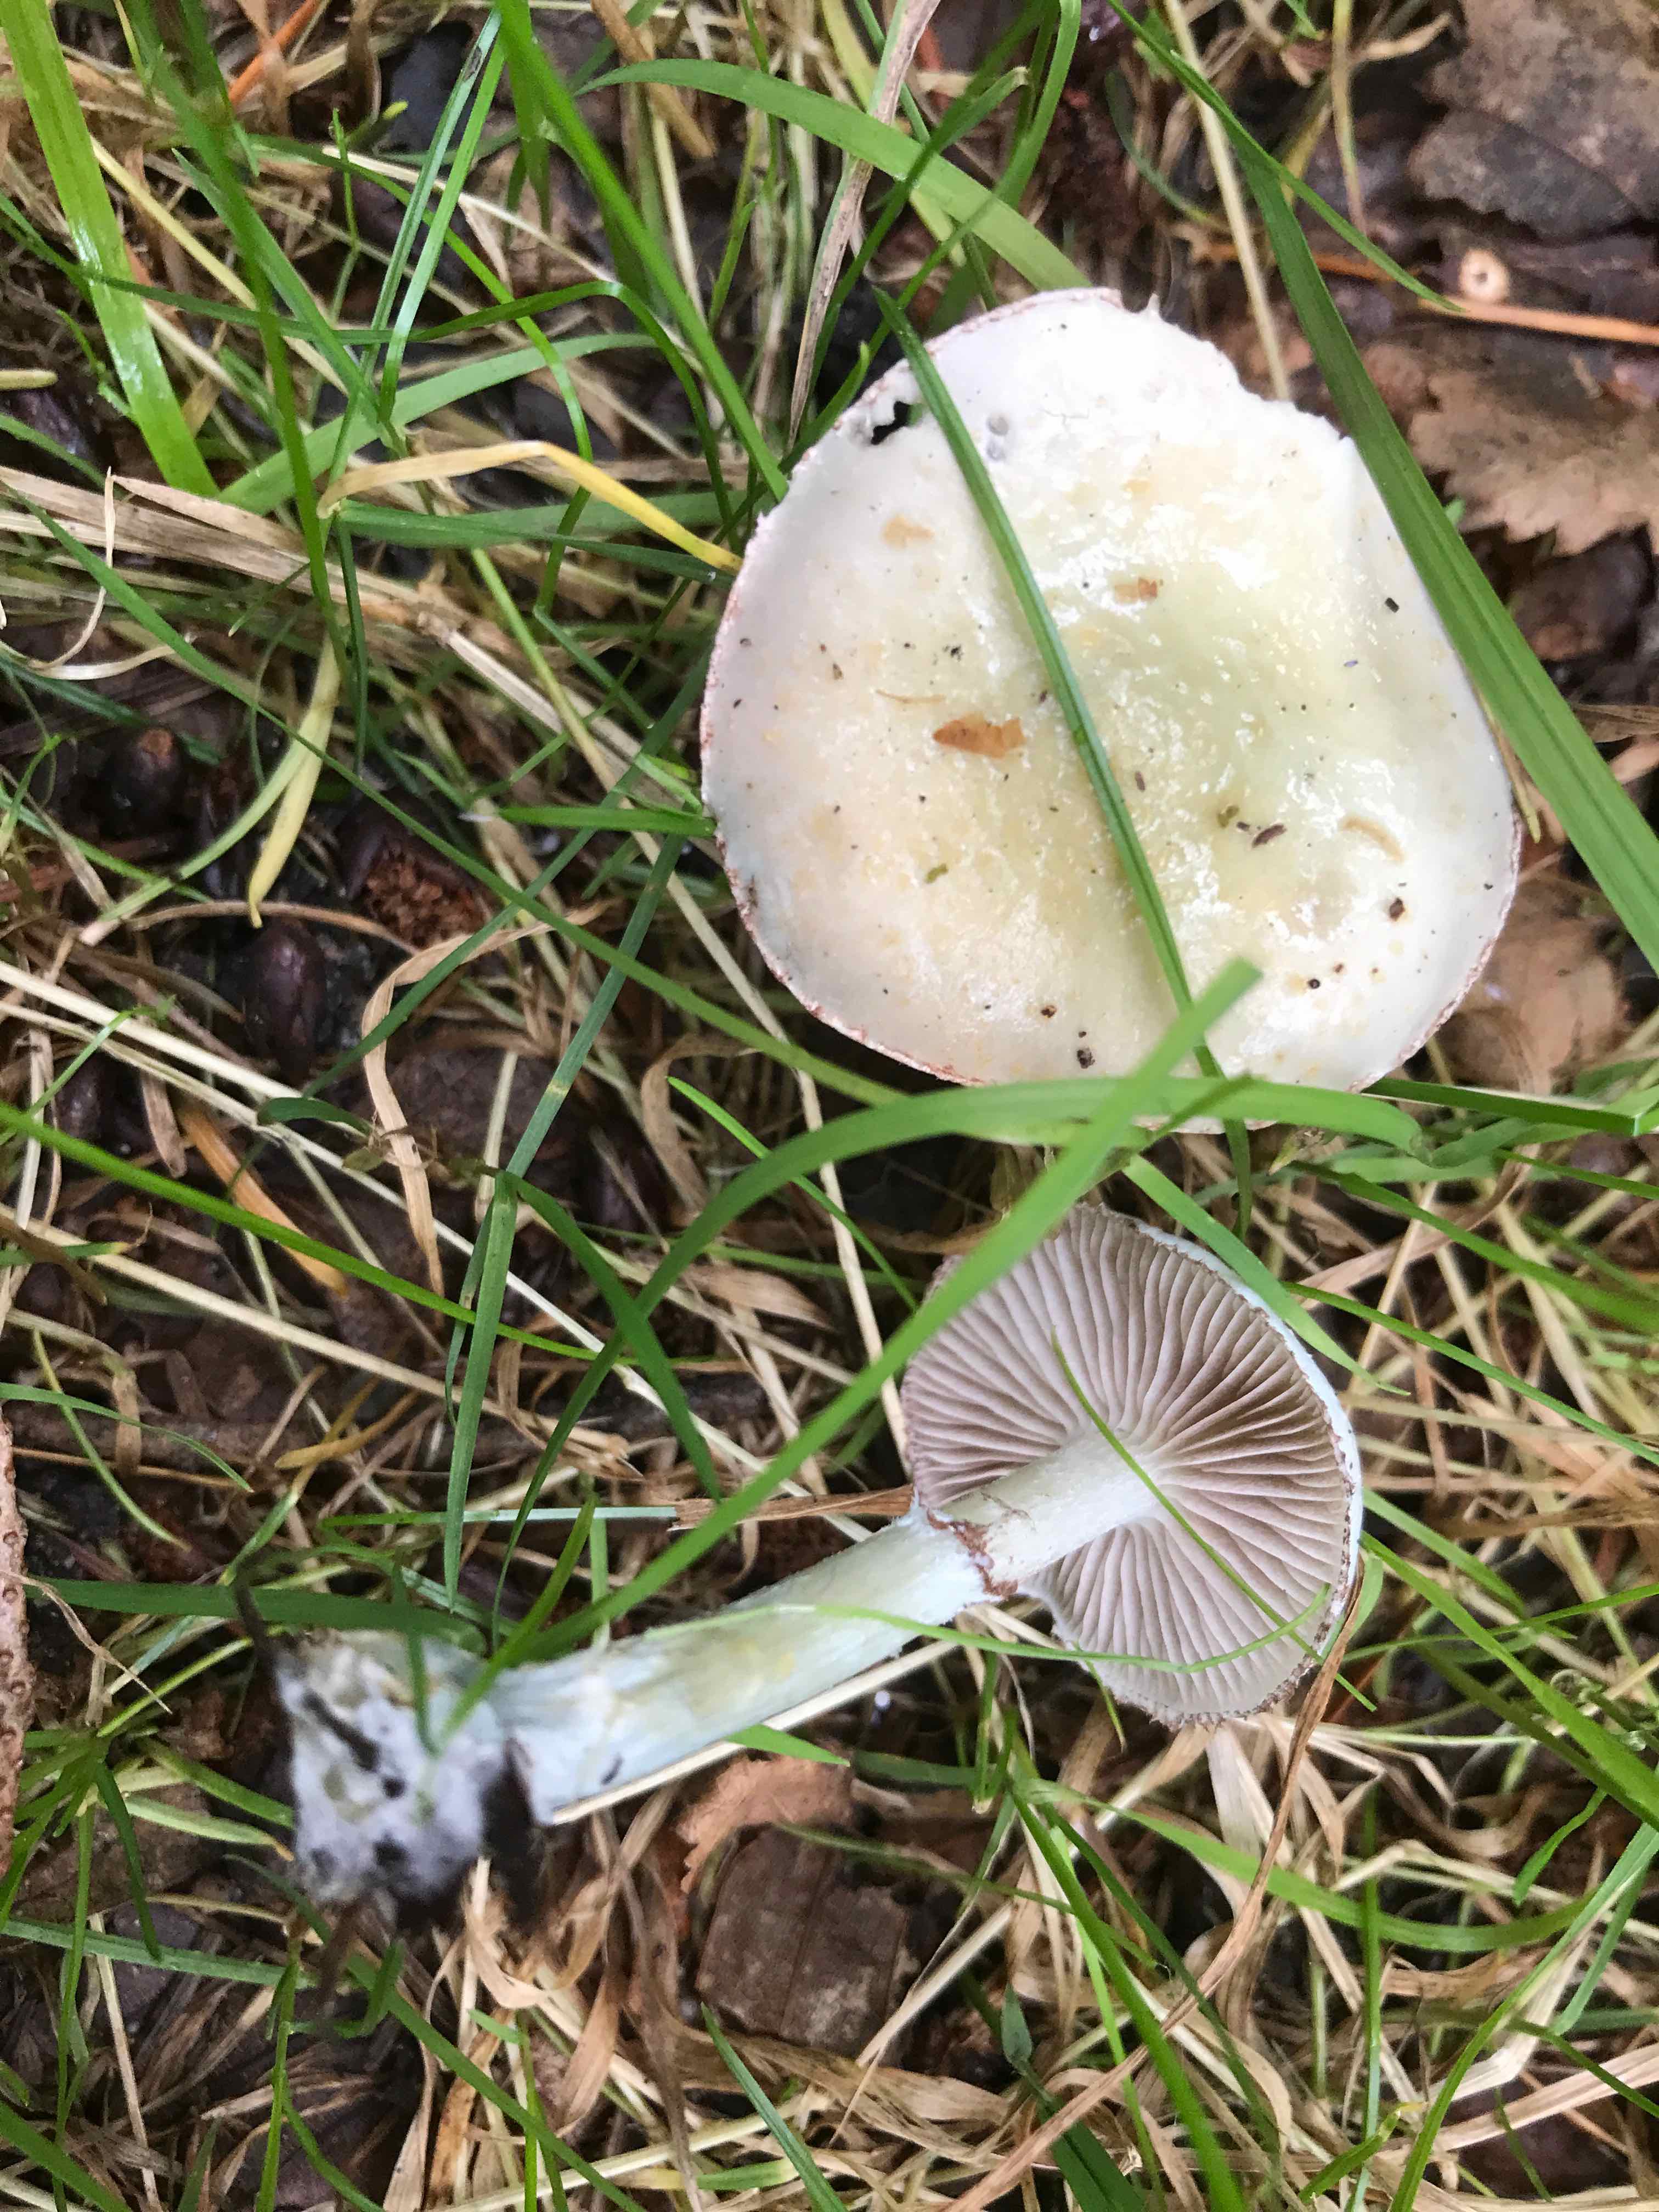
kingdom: Fungi
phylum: Basidiomycota
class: Agaricomycetes
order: Agaricales
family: Strophariaceae
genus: Stropharia
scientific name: Stropharia cyanea
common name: blågrøn bredblad
